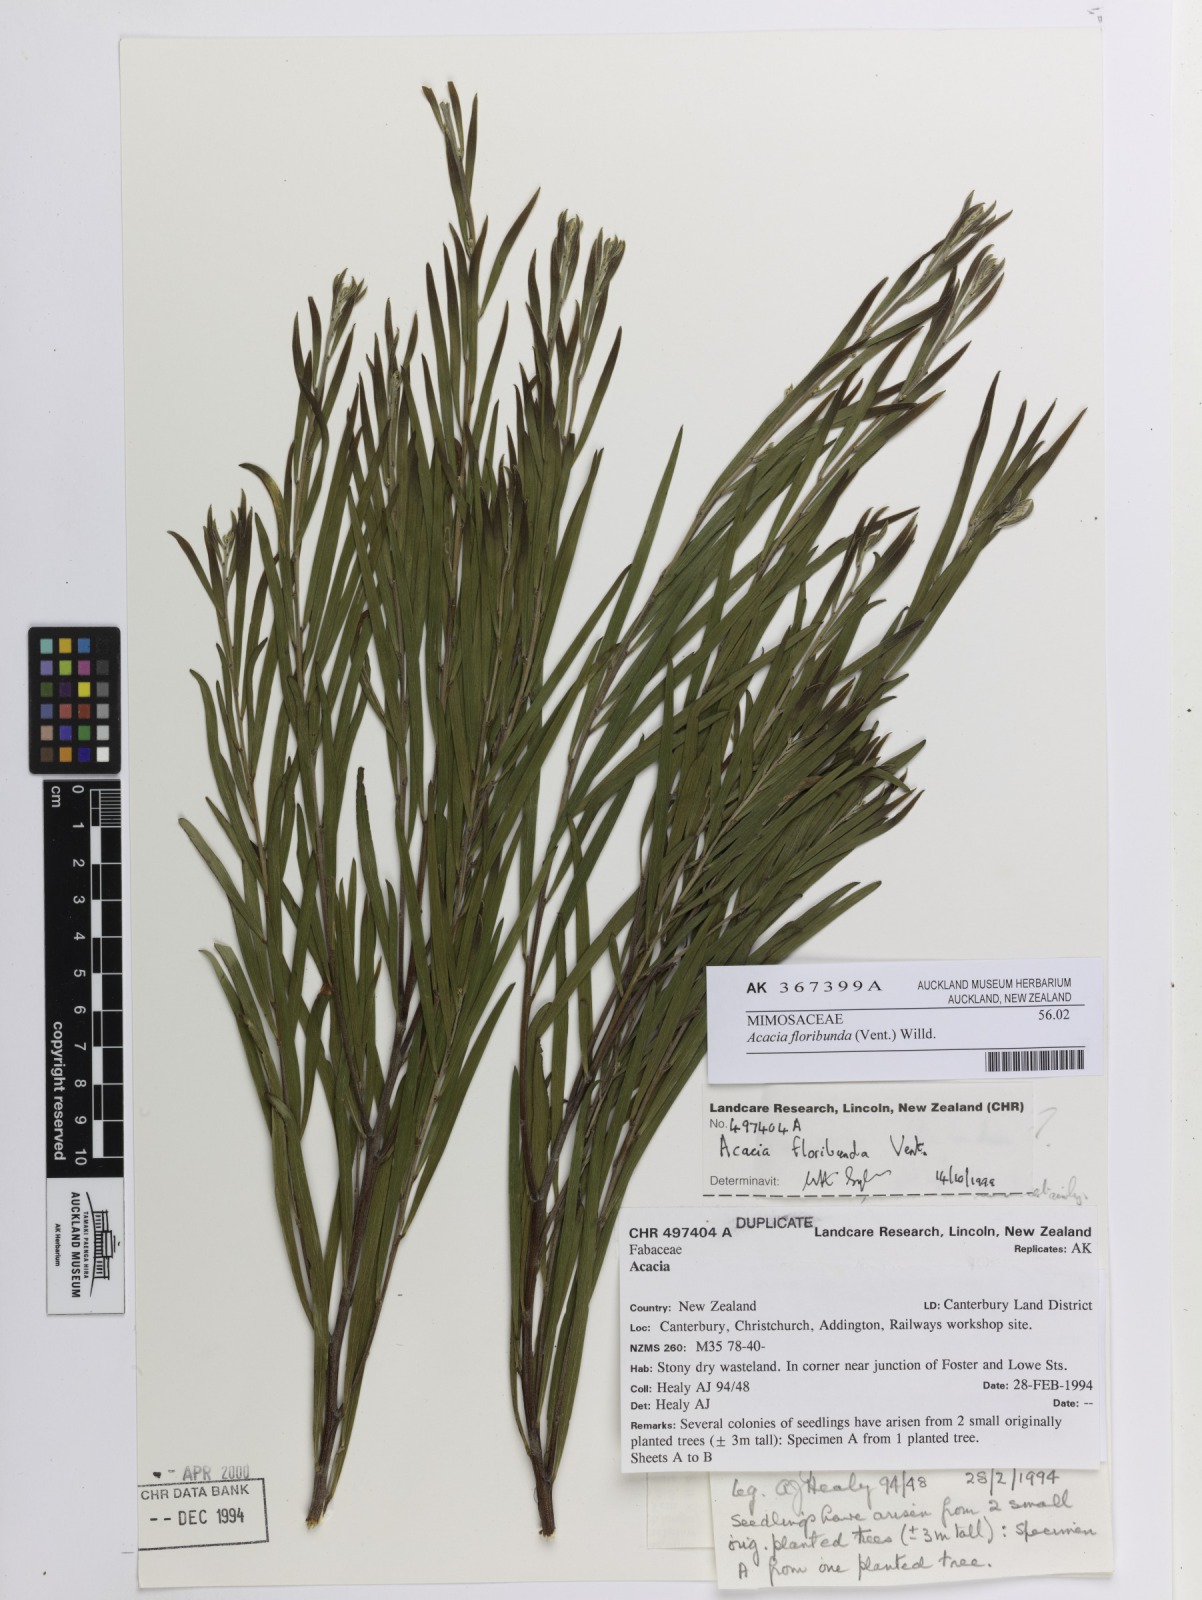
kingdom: Plantae
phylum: Tracheophyta
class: Magnoliopsida
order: Fabales
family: Fabaceae
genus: Acacia
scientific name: Acacia floribunda
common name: Gossamer wattle
